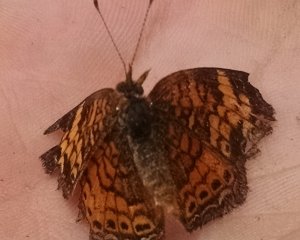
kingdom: Animalia
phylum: Arthropoda
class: Insecta
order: Lepidoptera
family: Nymphalidae
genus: Phyciodes
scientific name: Phyciodes tharos
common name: Pearl Crescent
